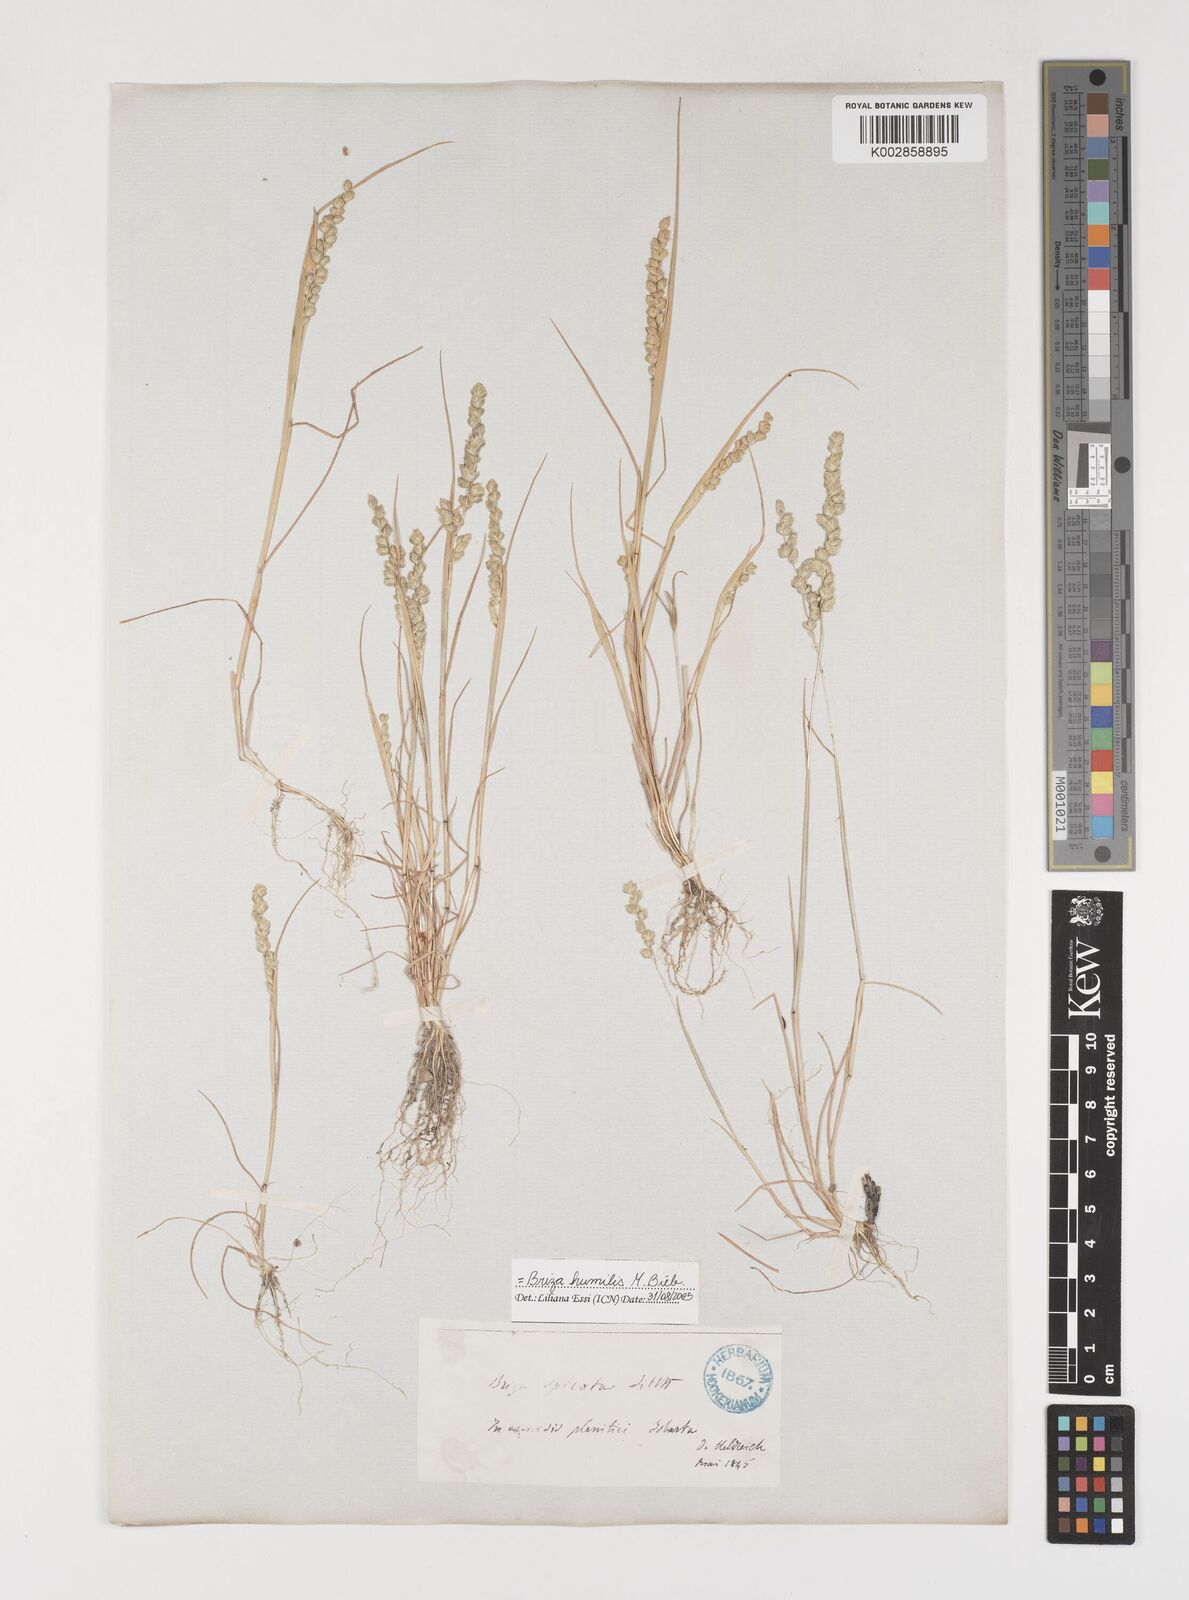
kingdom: Plantae
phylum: Tracheophyta
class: Liliopsida
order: Poales
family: Poaceae
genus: Briza
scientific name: Briza humilis
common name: Spiked quaking grass
